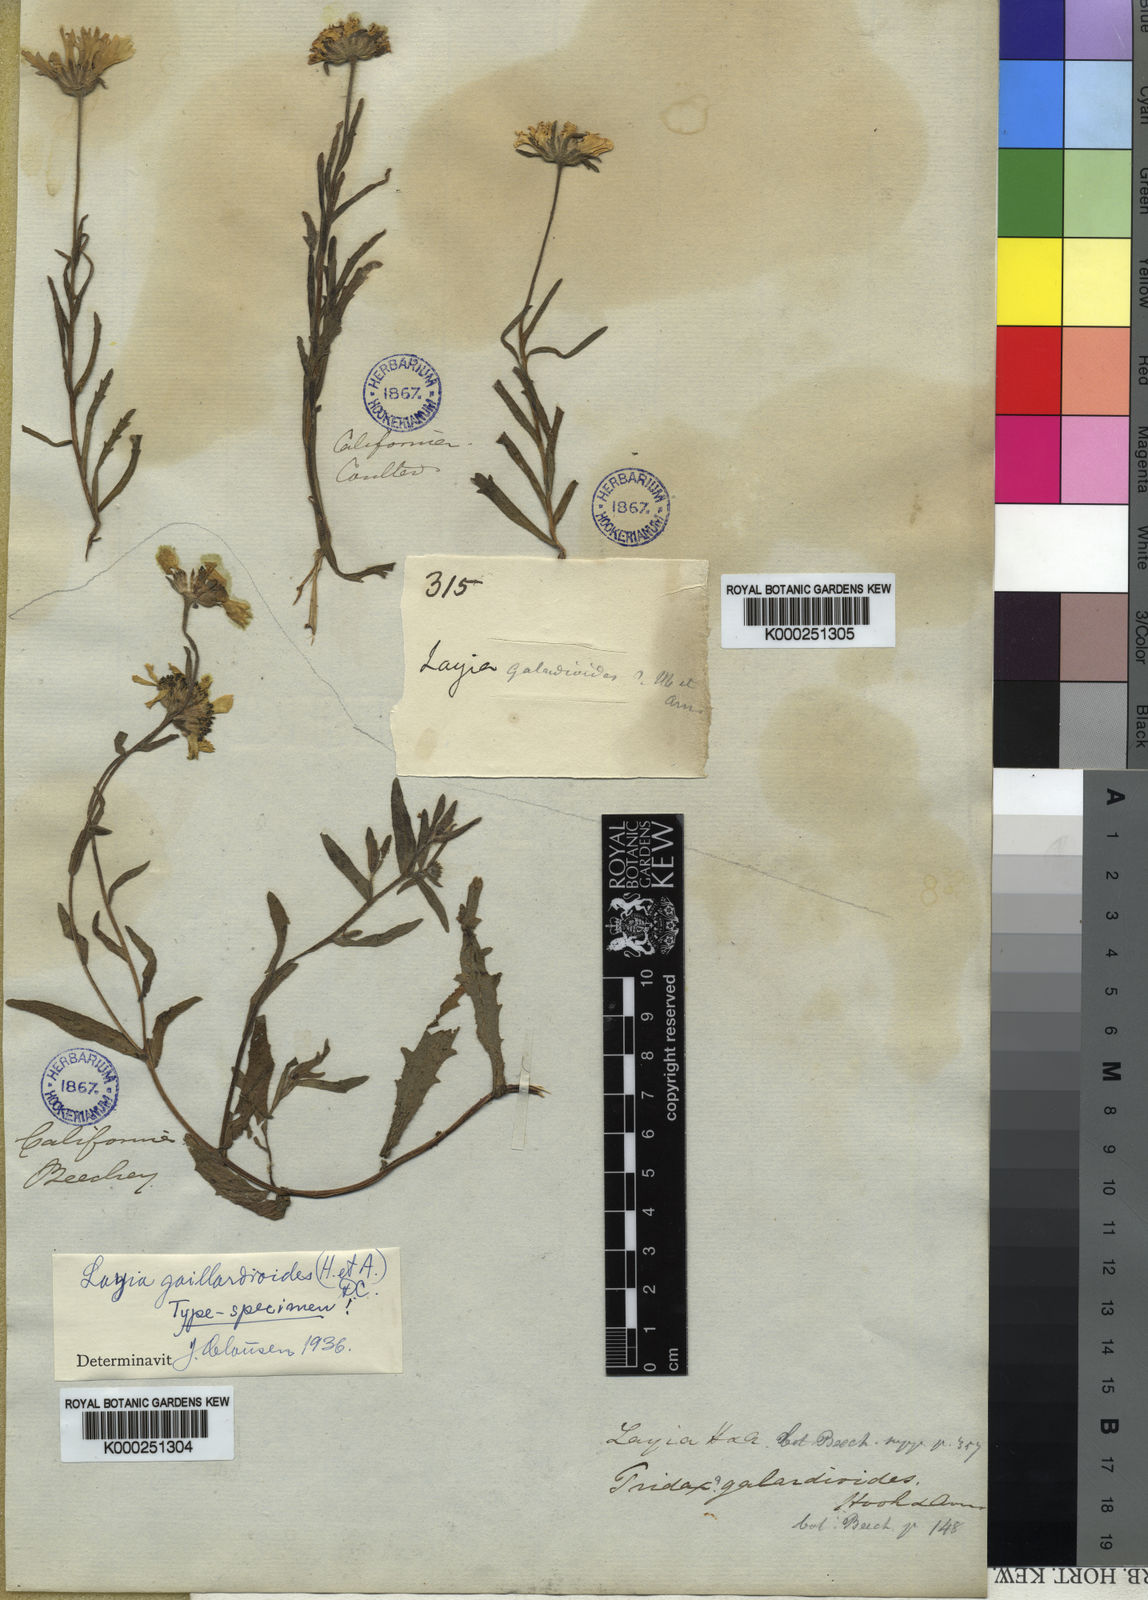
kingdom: Plantae
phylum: Tracheophyta
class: Magnoliopsida
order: Asterales
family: Asteraceae
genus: Layia
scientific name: Layia
